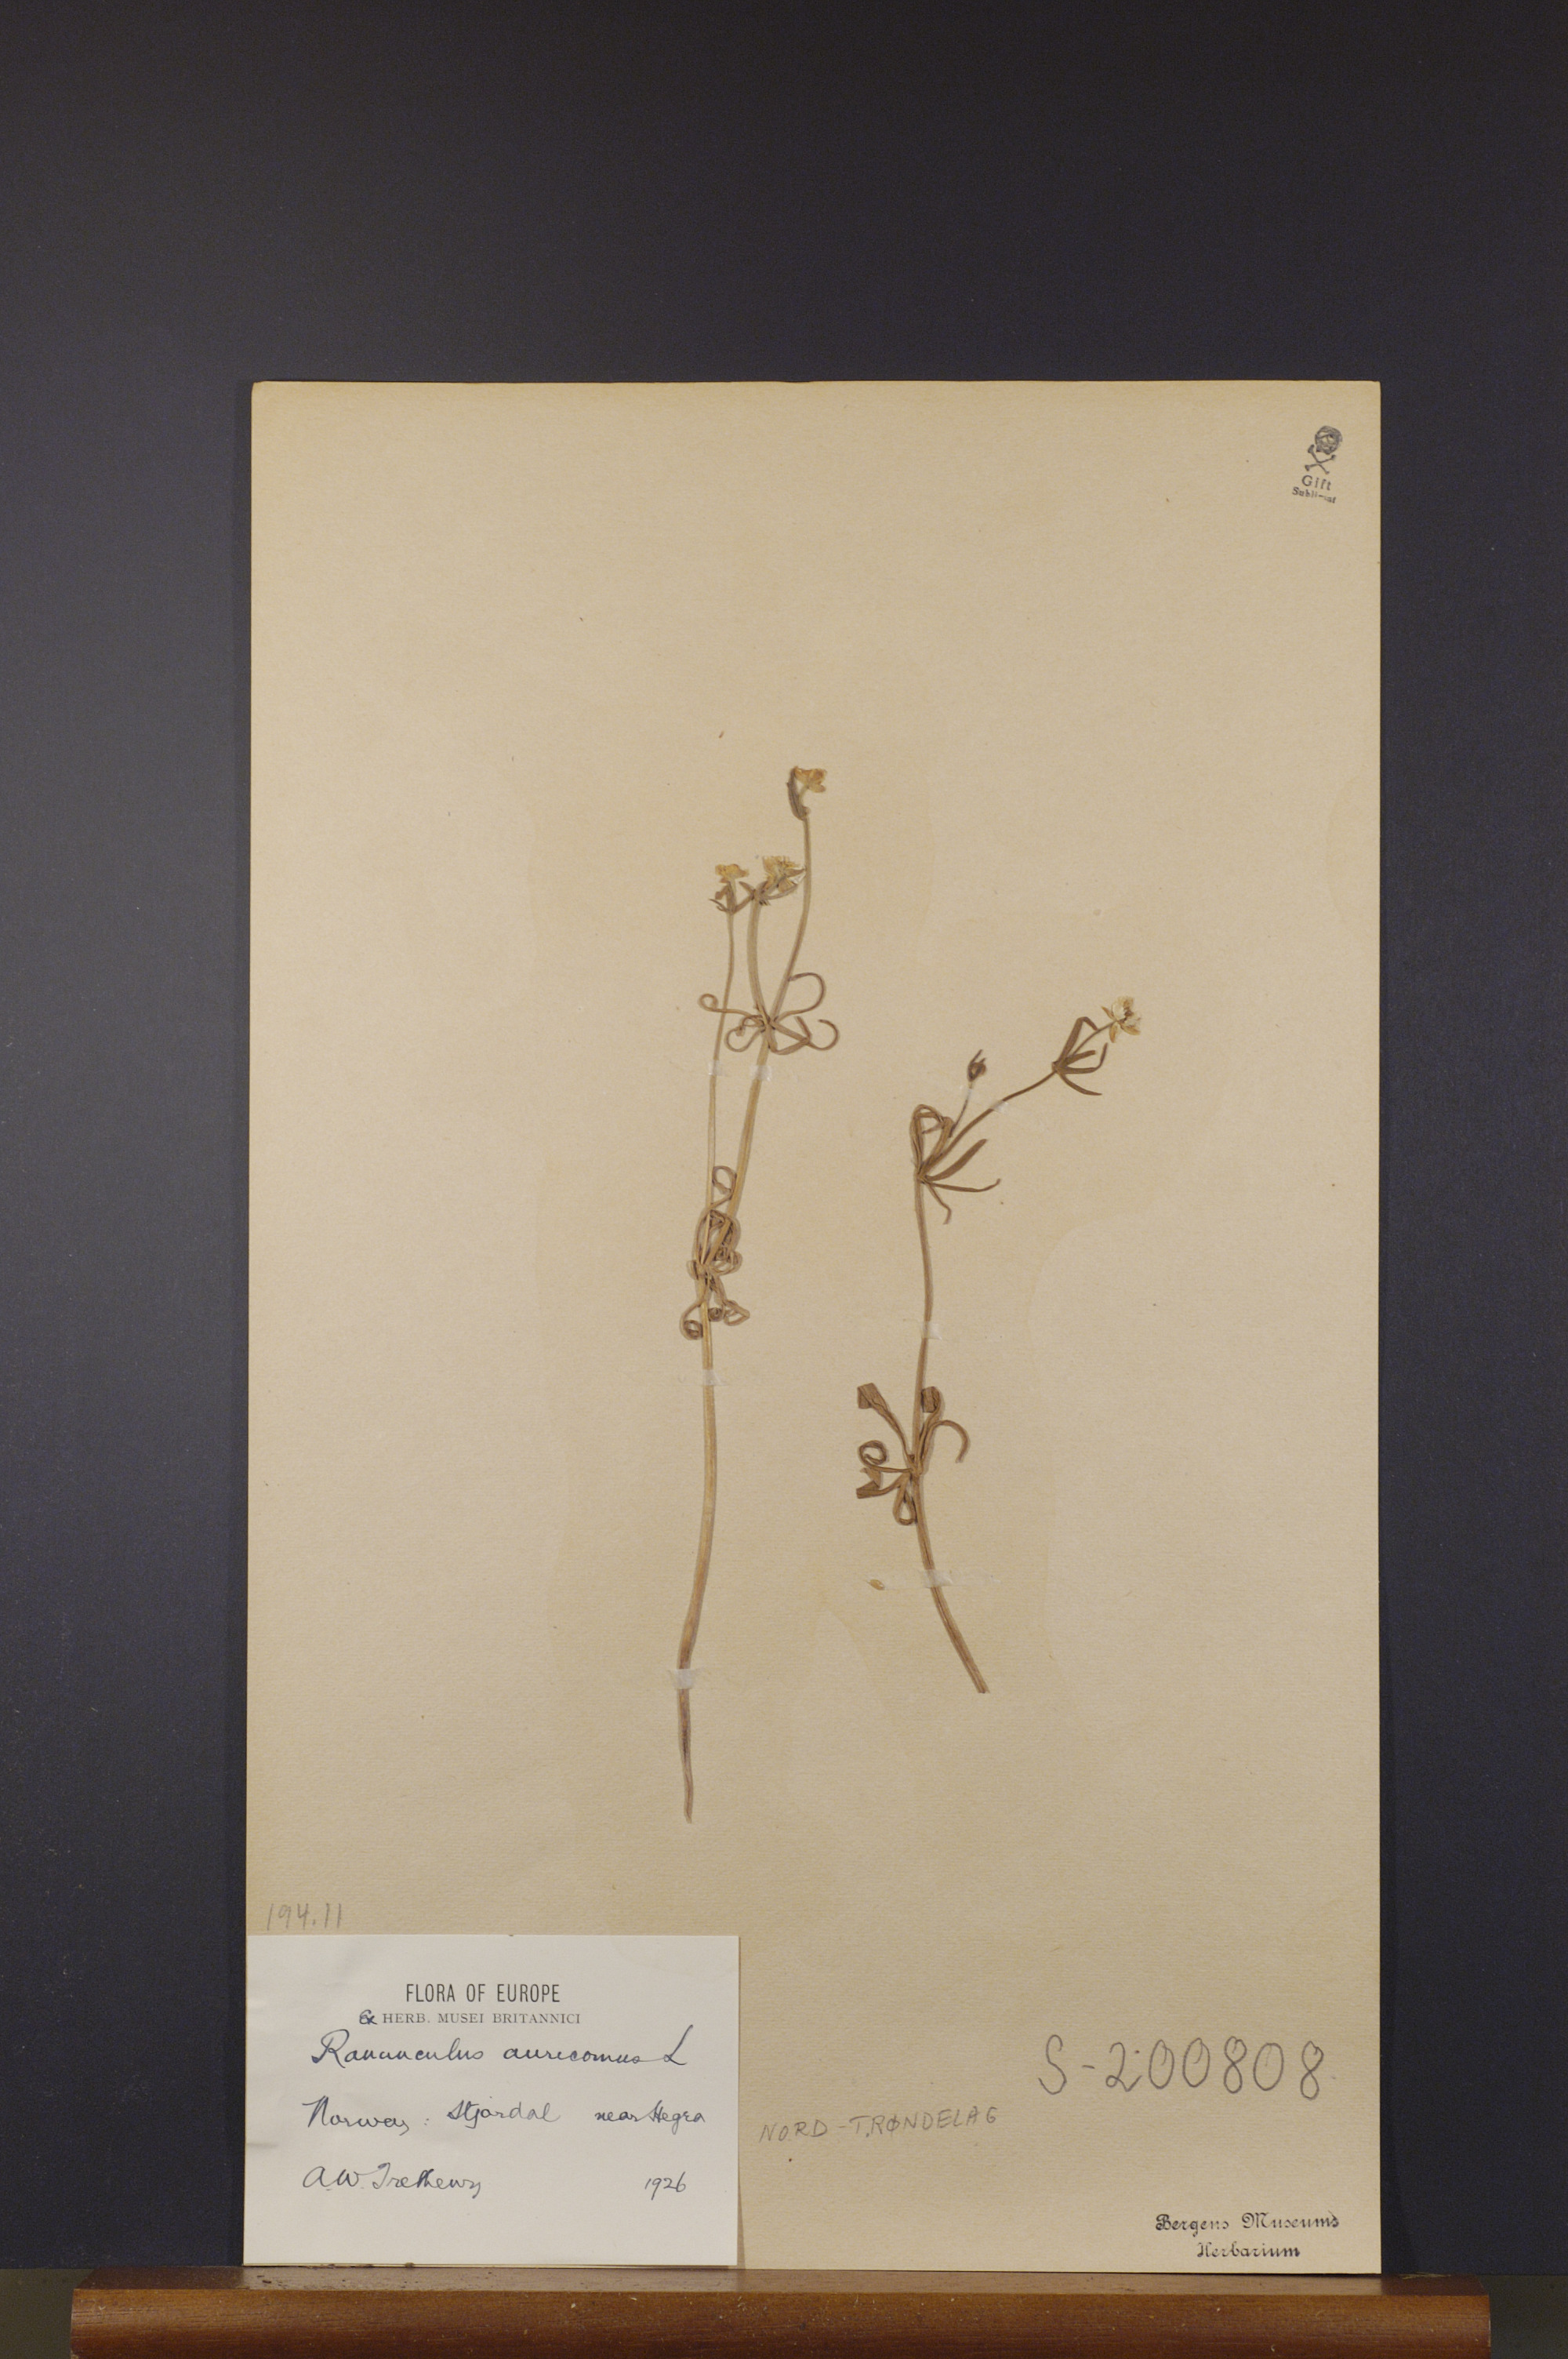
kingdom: Plantae
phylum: Tracheophyta
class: Magnoliopsida
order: Ranunculales
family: Ranunculaceae
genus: Ranunculus
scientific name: Ranunculus auricomus
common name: Goldilocks buttercup
